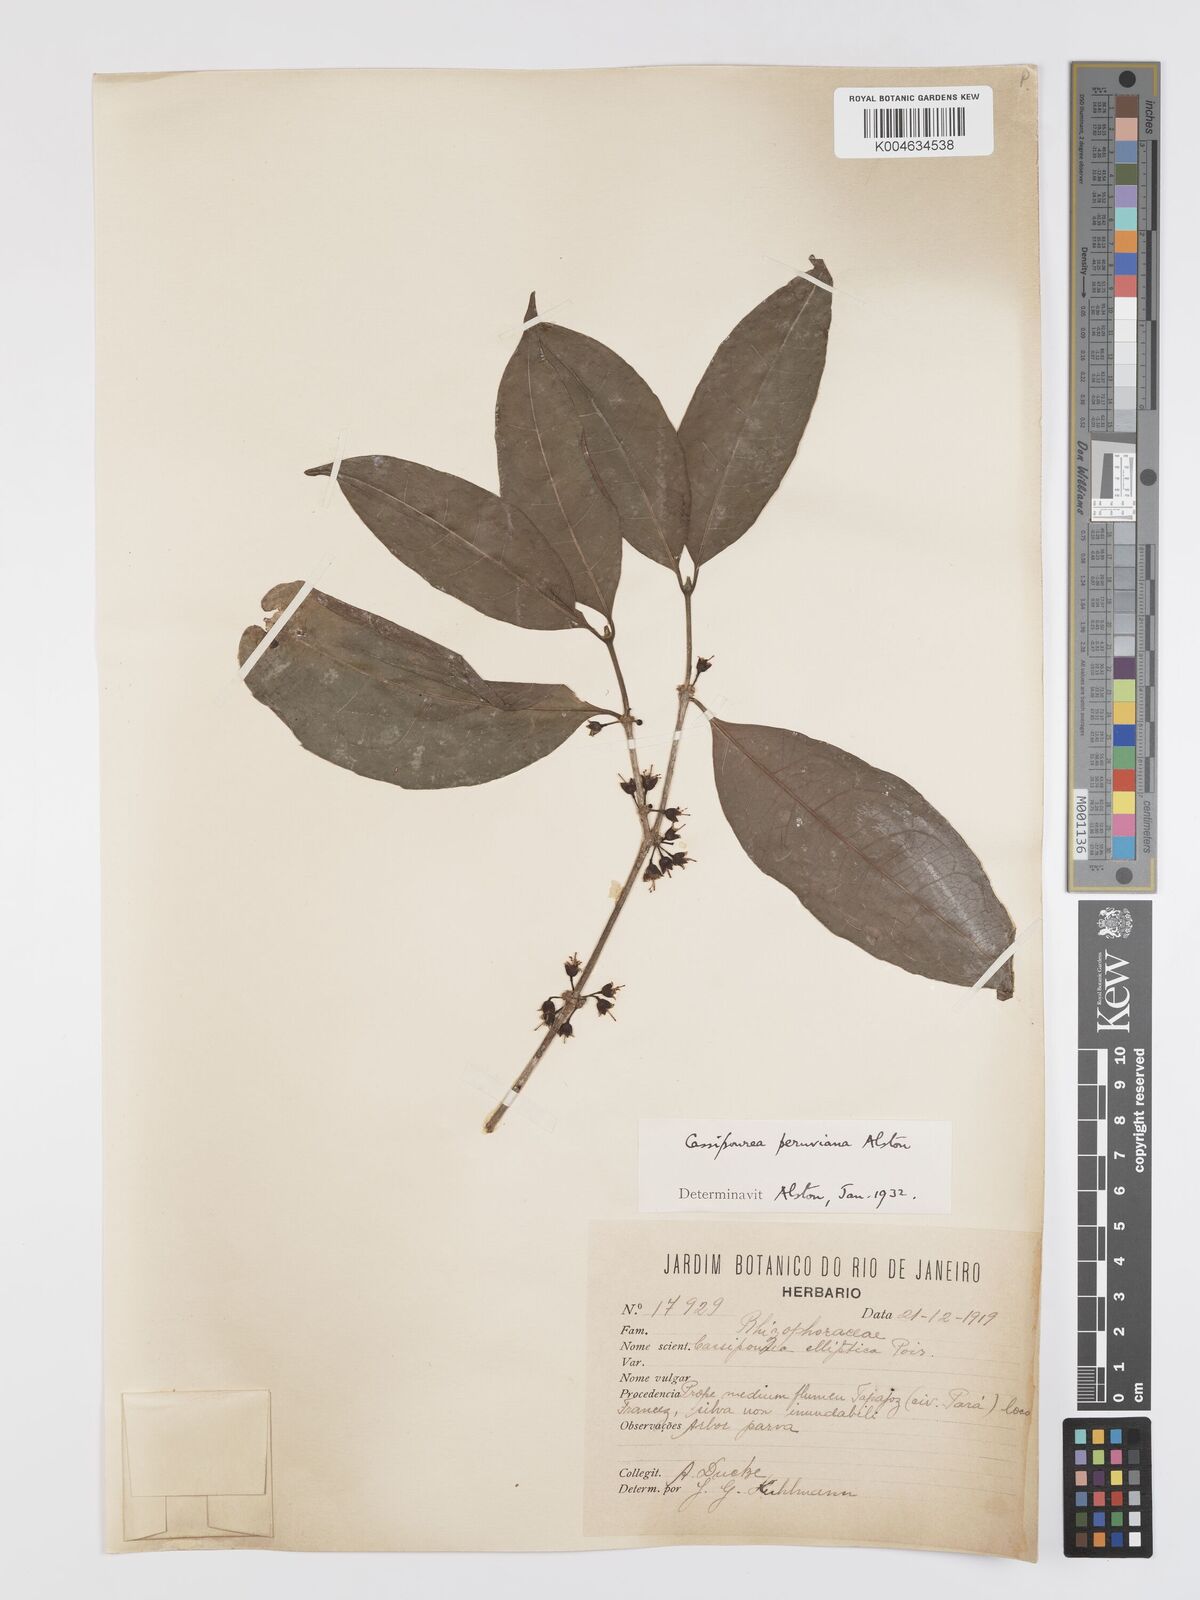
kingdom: Plantae
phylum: Tracheophyta
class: Magnoliopsida
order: Malpighiales
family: Rhizophoraceae
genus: Cassipourea
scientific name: Cassipourea peruviana
